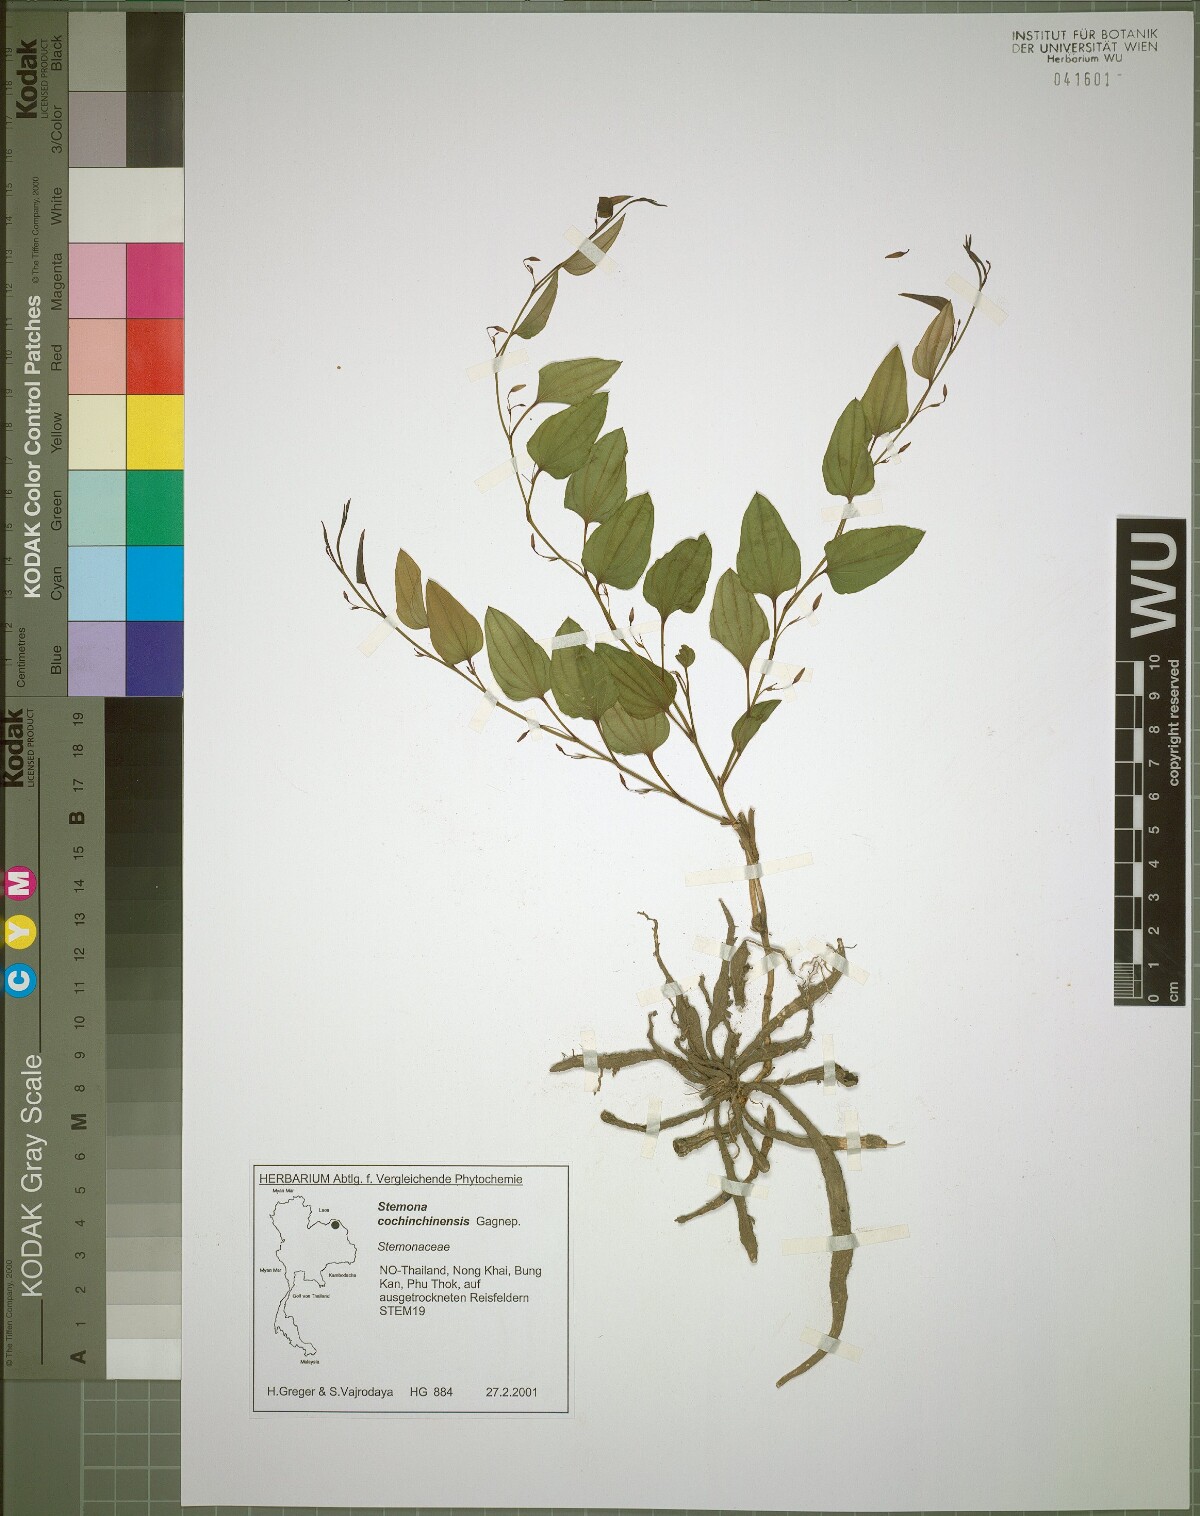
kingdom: Plantae
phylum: Tracheophyta
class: Liliopsida
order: Pandanales
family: Stemonaceae
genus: Stemona
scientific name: Stemona cochinchinensis
